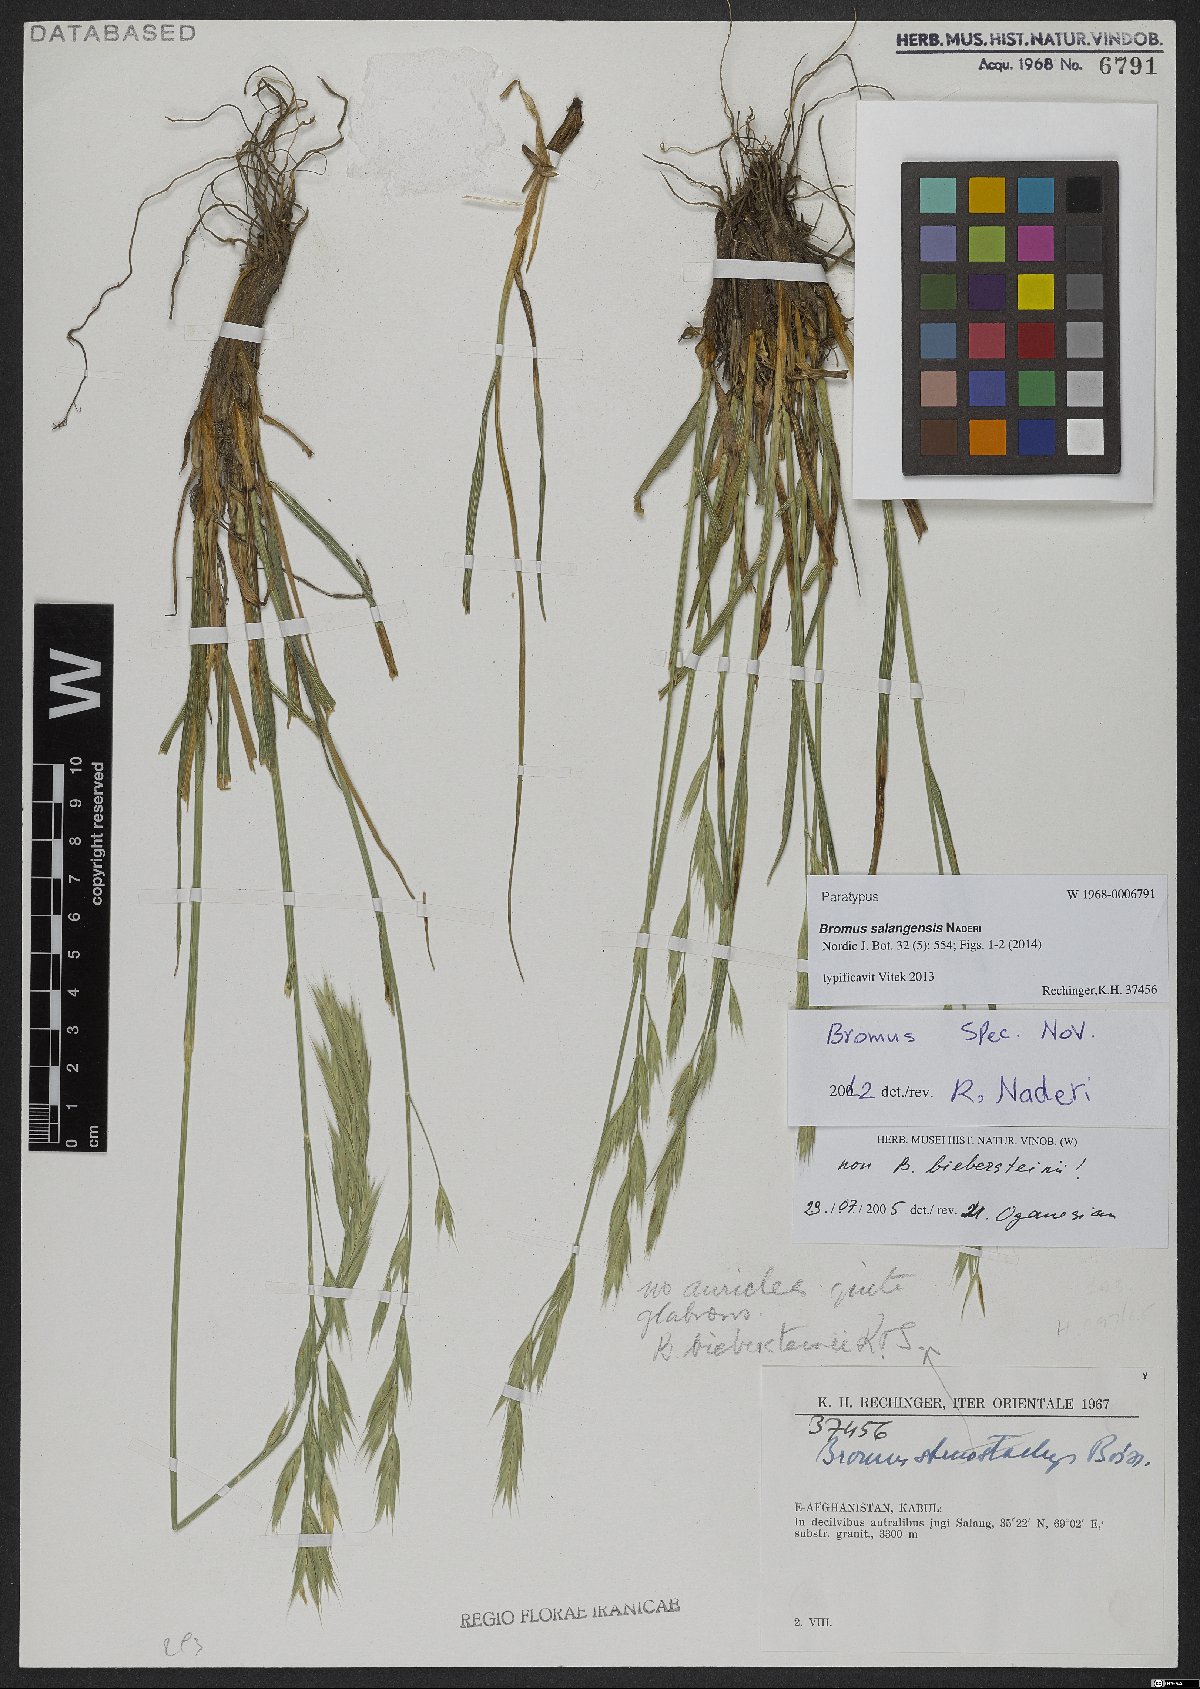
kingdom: Plantae
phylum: Tracheophyta
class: Liliopsida
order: Poales
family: Poaceae
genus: Bromus
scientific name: Bromus salangensis
